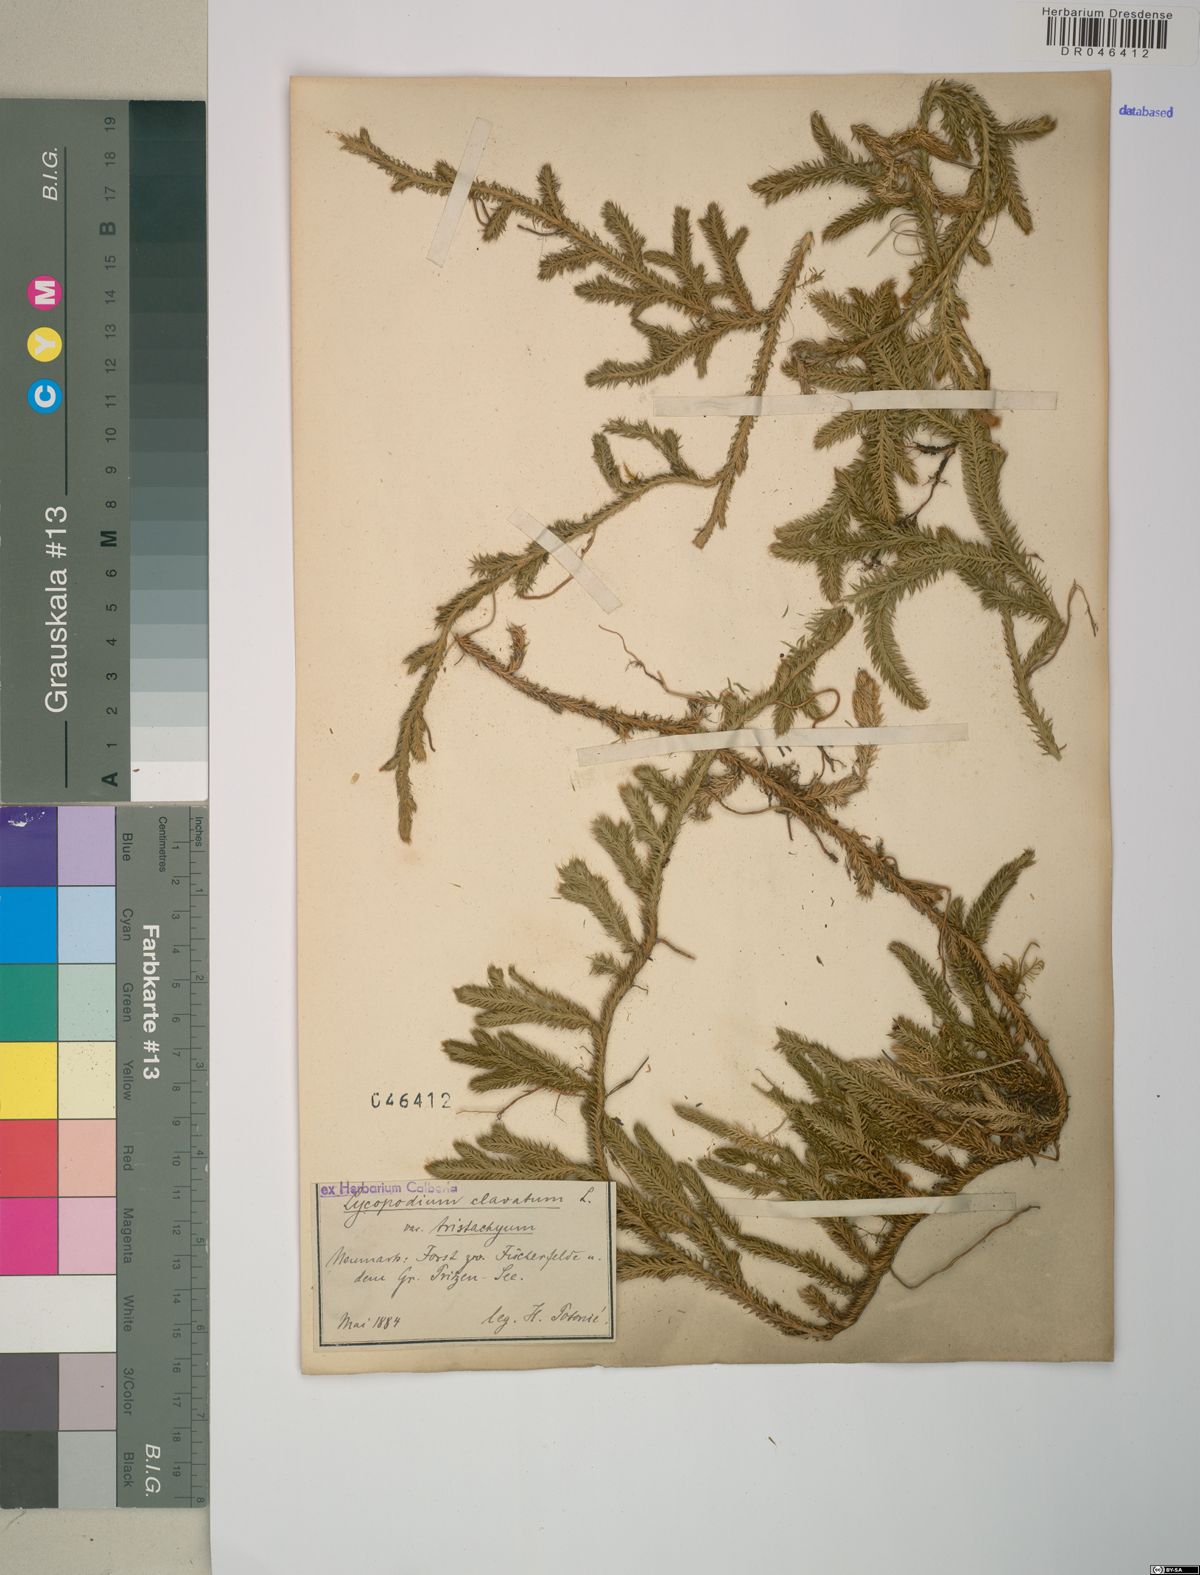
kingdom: Plantae
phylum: Tracheophyta
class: Lycopodiopsida
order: Lycopodiales
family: Lycopodiaceae
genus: Lycopodium
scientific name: Lycopodium clavatum
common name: Stag's-horn clubmoss
